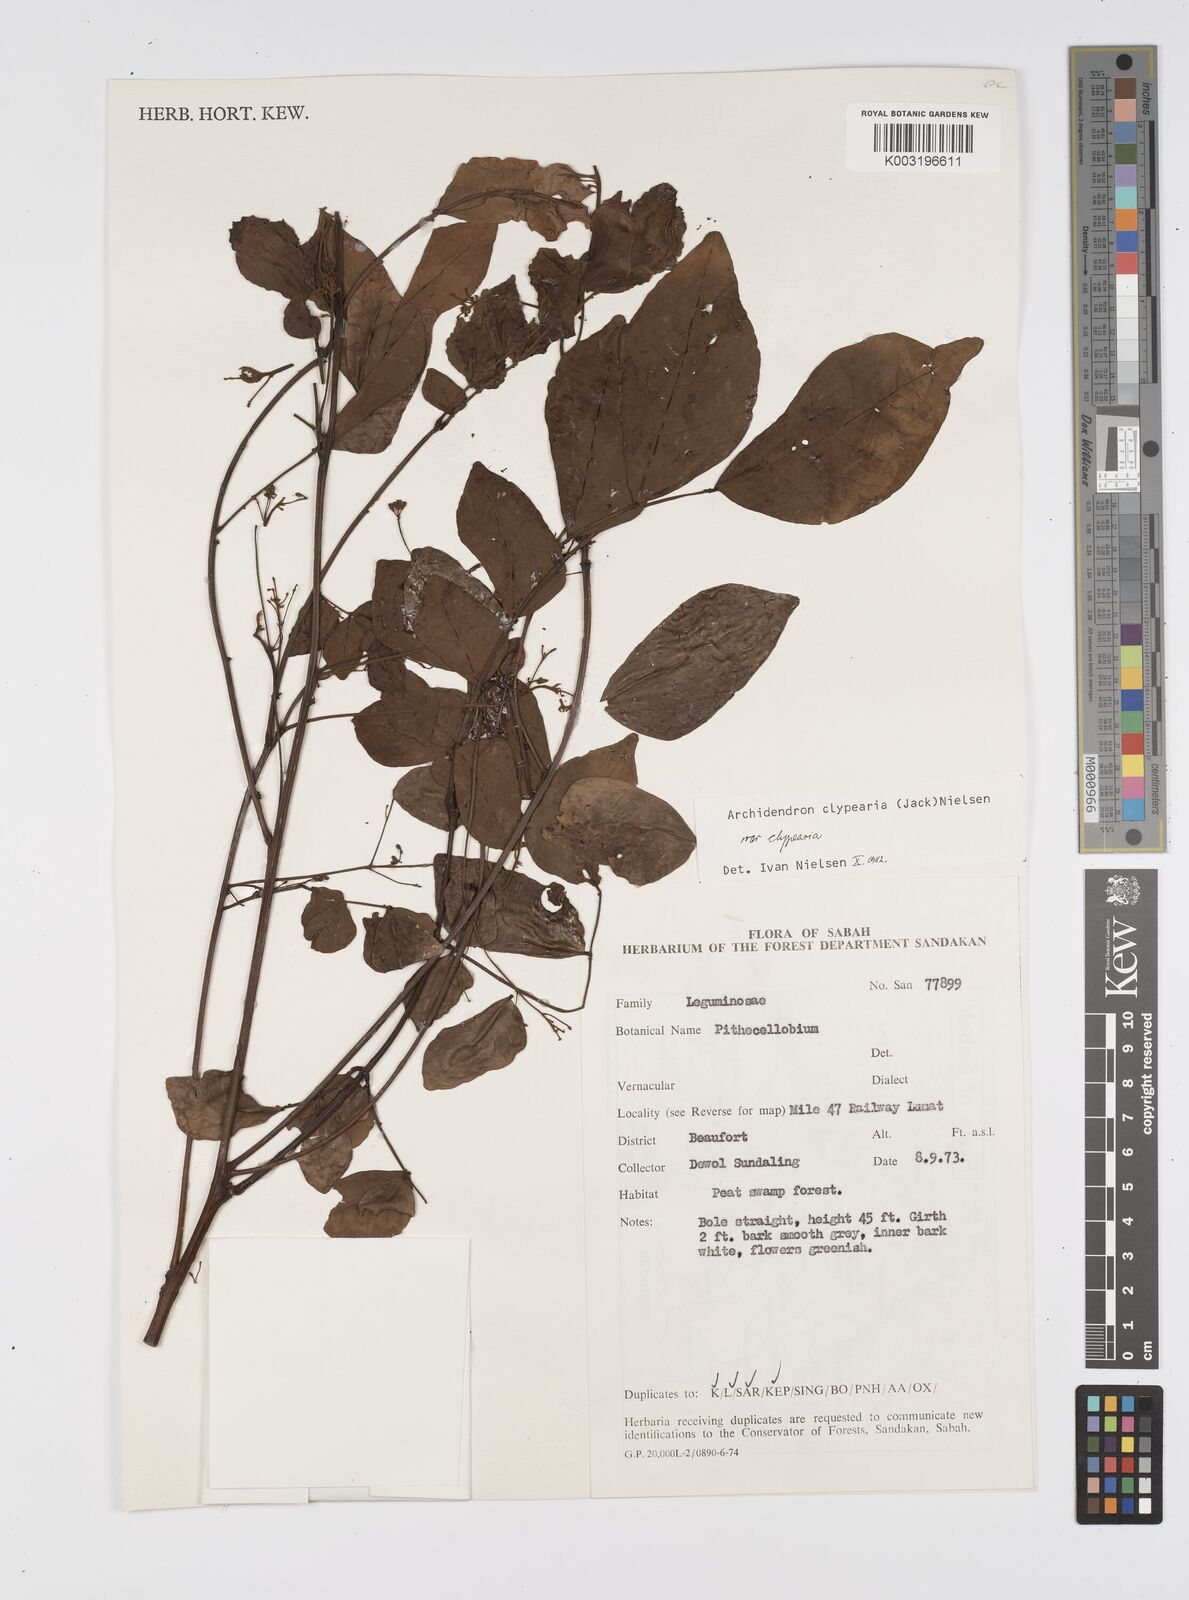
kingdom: Plantae
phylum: Tracheophyta
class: Magnoliopsida
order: Fabales
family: Fabaceae
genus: Archidendron
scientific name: Archidendron clypearia
